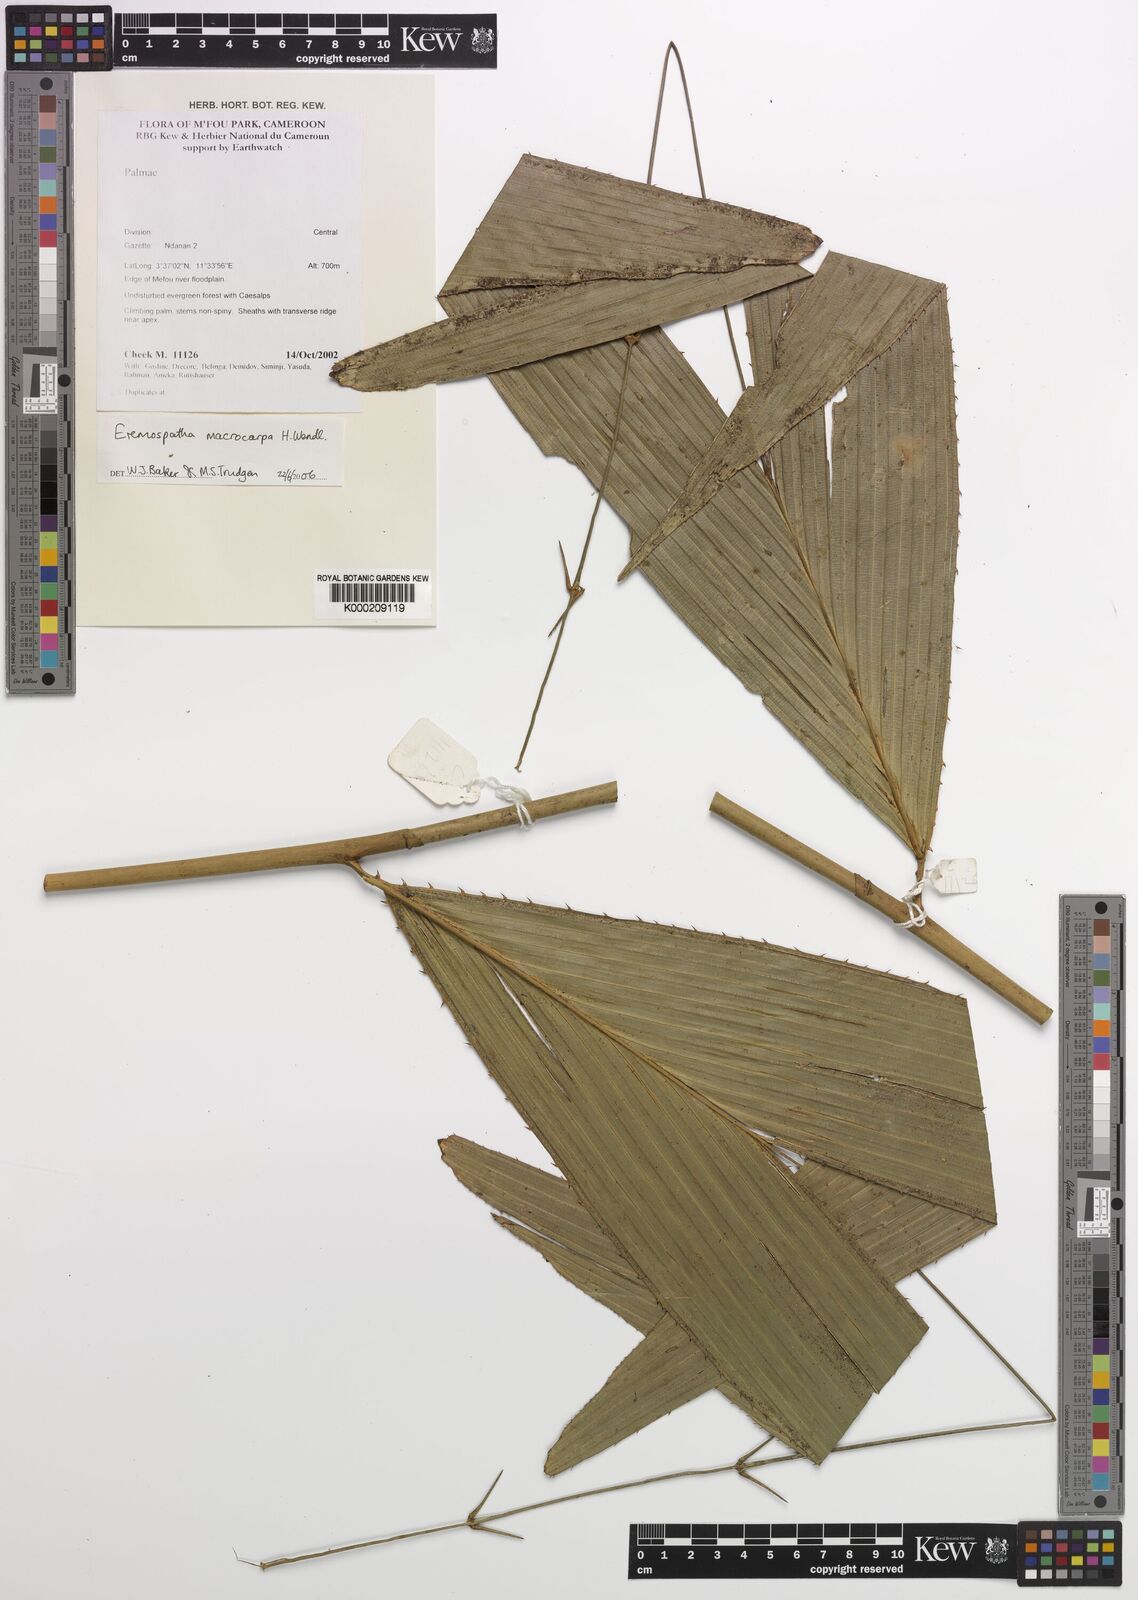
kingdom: Plantae
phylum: Tracheophyta
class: Liliopsida
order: Arecales
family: Arecaceae
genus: Eremospatha
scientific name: Eremospatha
